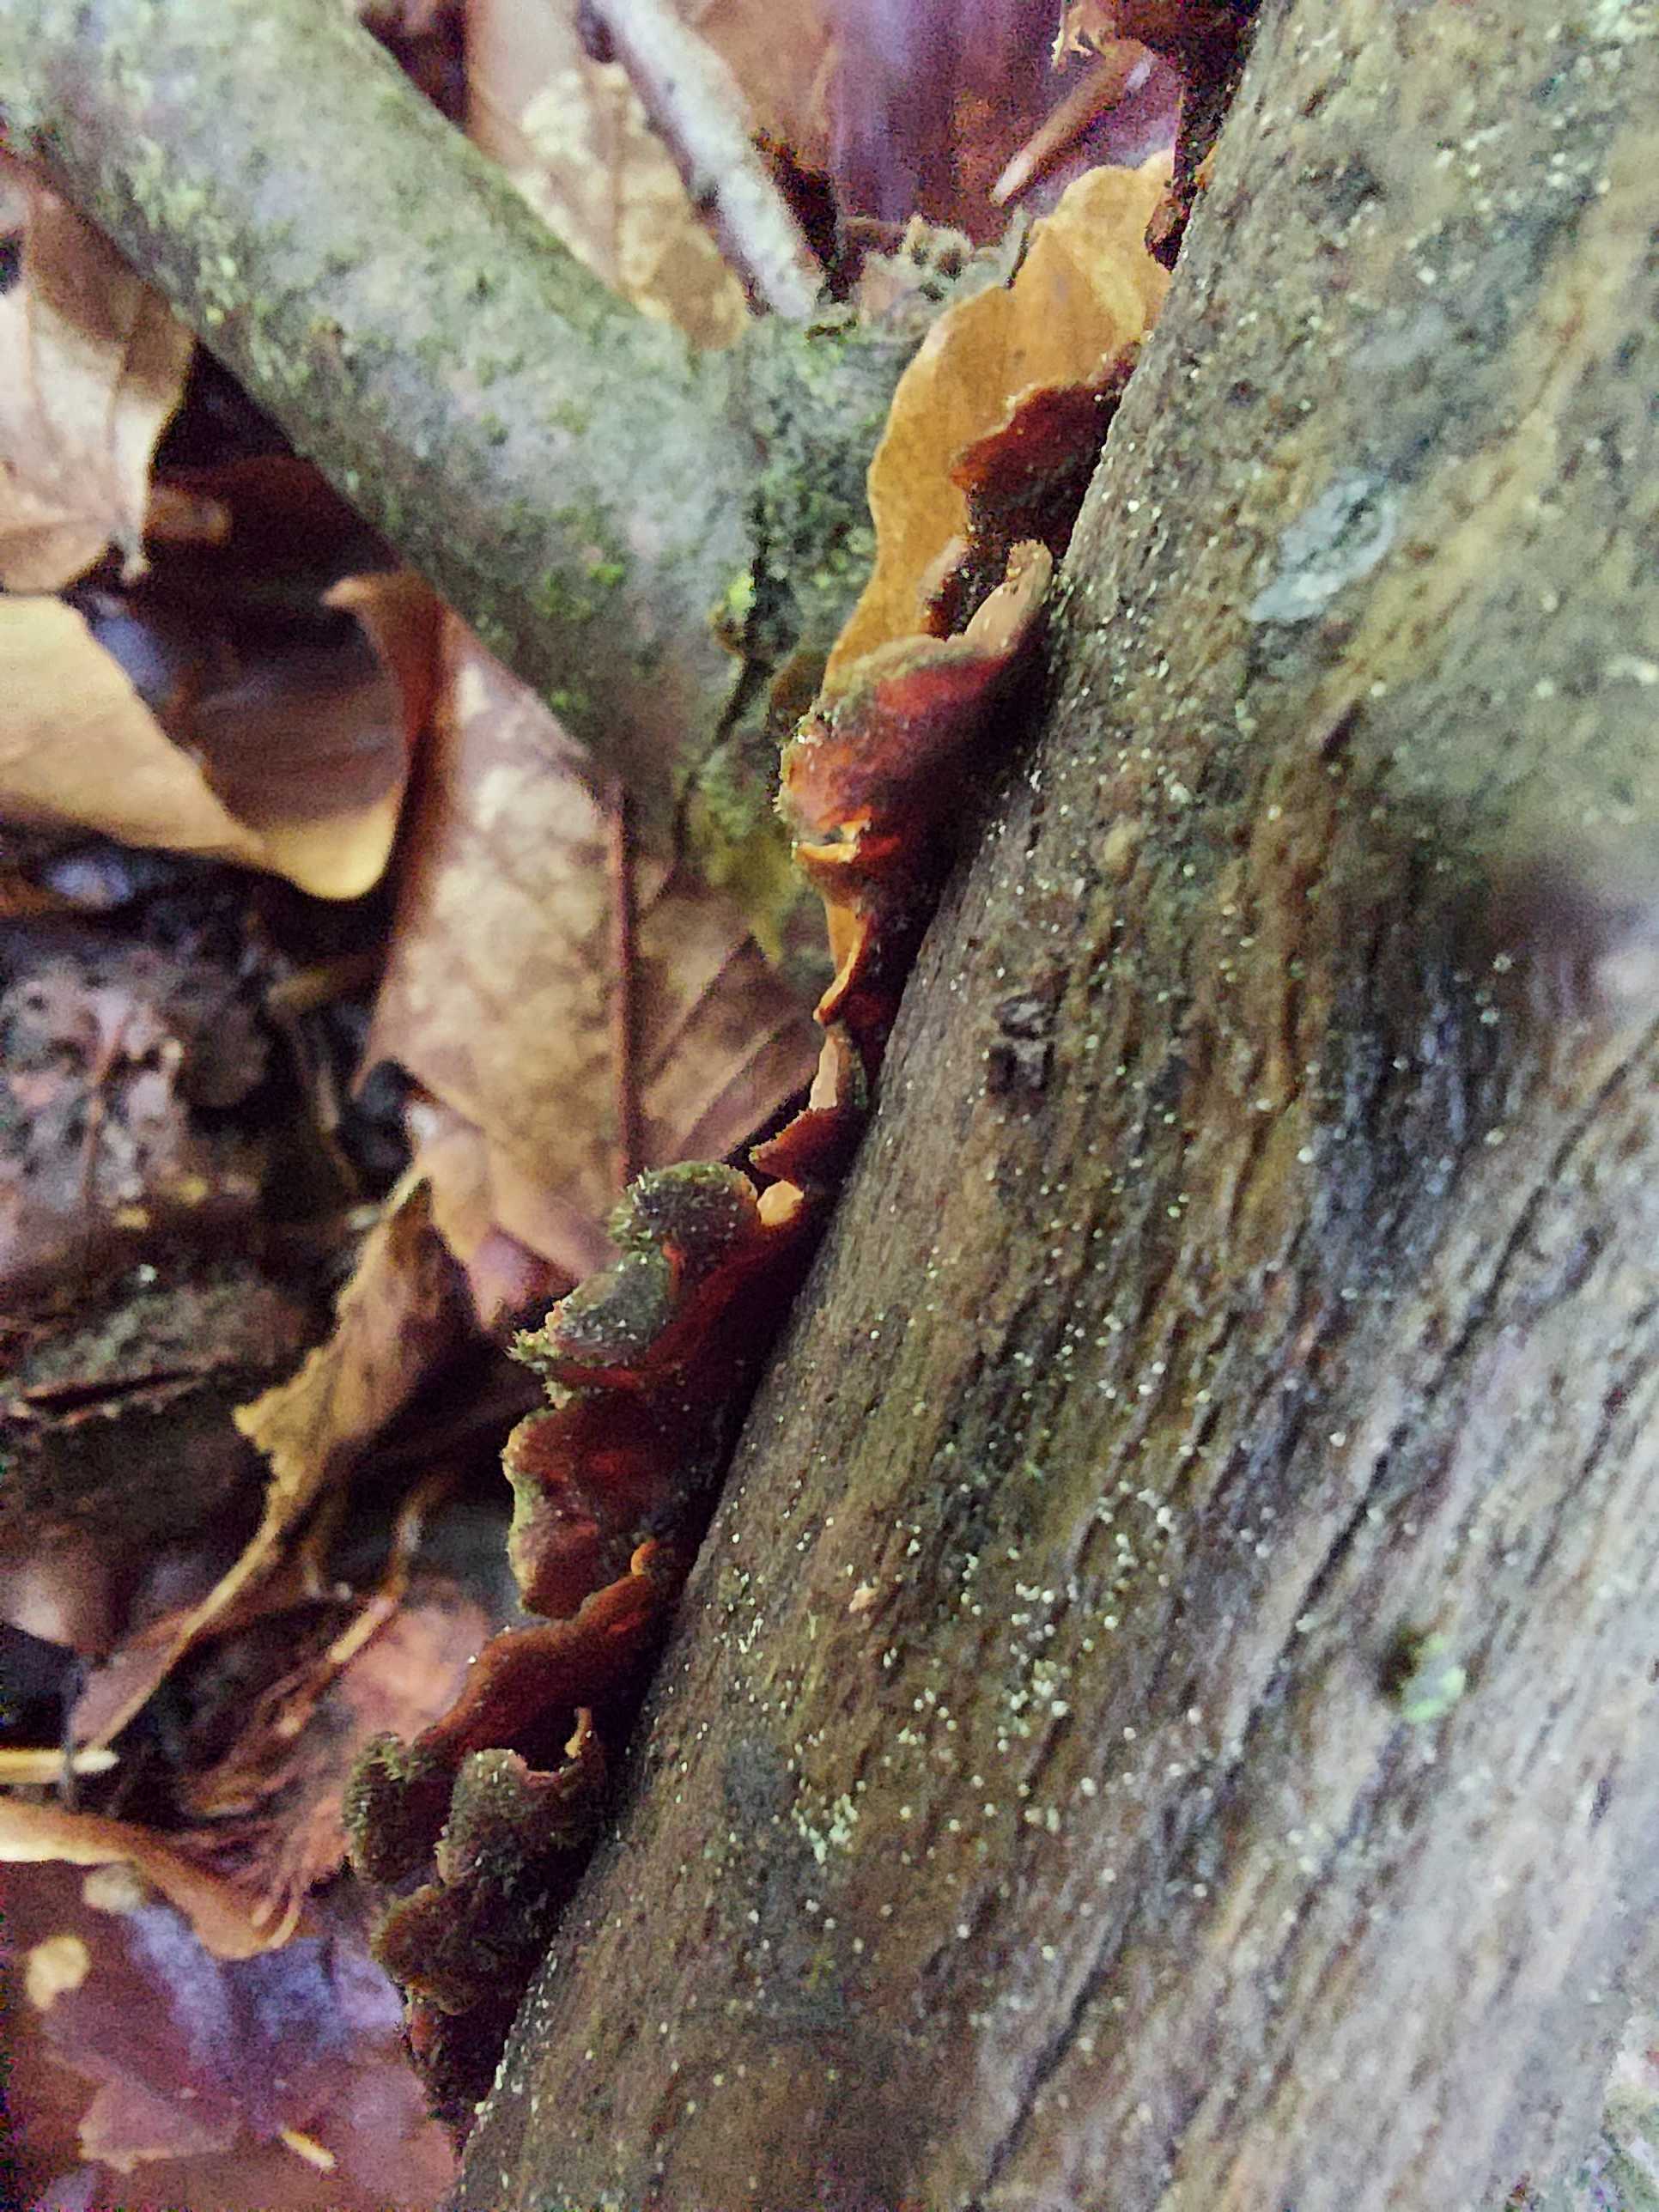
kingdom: Fungi
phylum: Basidiomycota
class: Agaricomycetes
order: Russulales
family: Stereaceae
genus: Stereum
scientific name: Stereum
